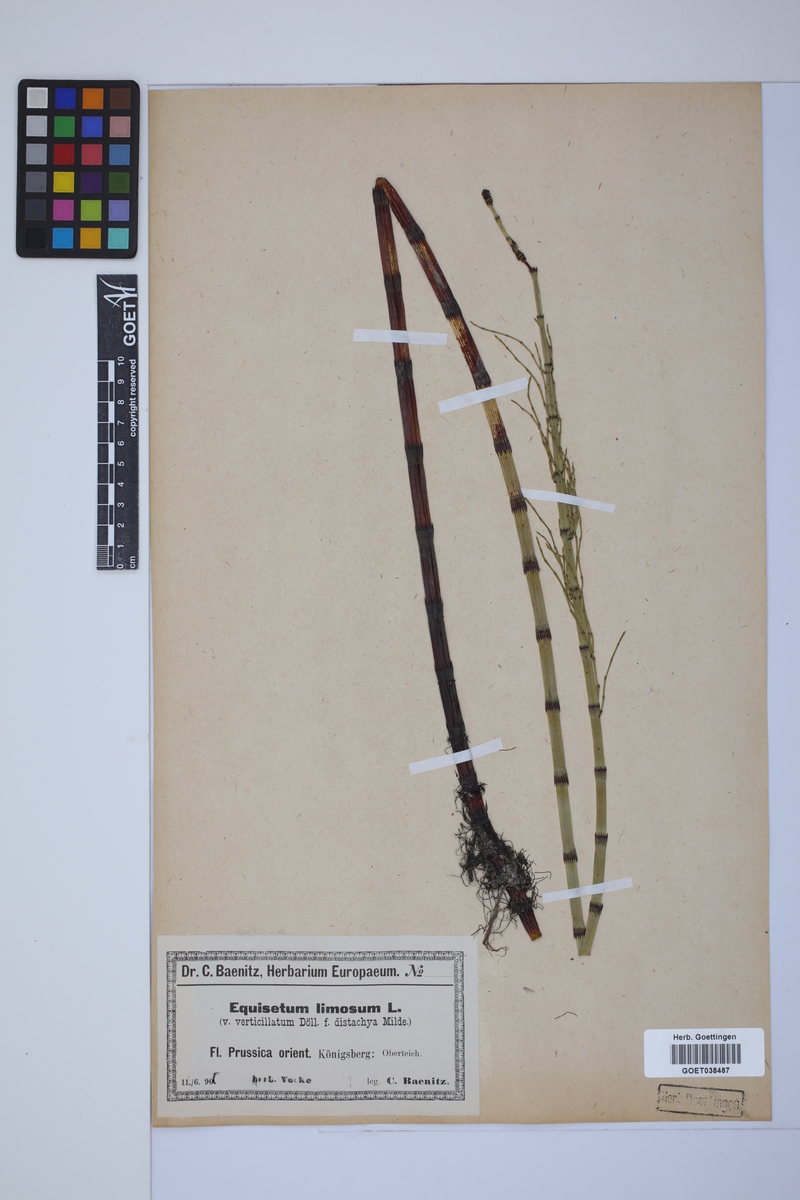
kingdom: Plantae
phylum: Tracheophyta
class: Polypodiopsida
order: Equisetales
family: Equisetaceae
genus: Equisetum
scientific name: Equisetum fluviatile
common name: Water horsetail
